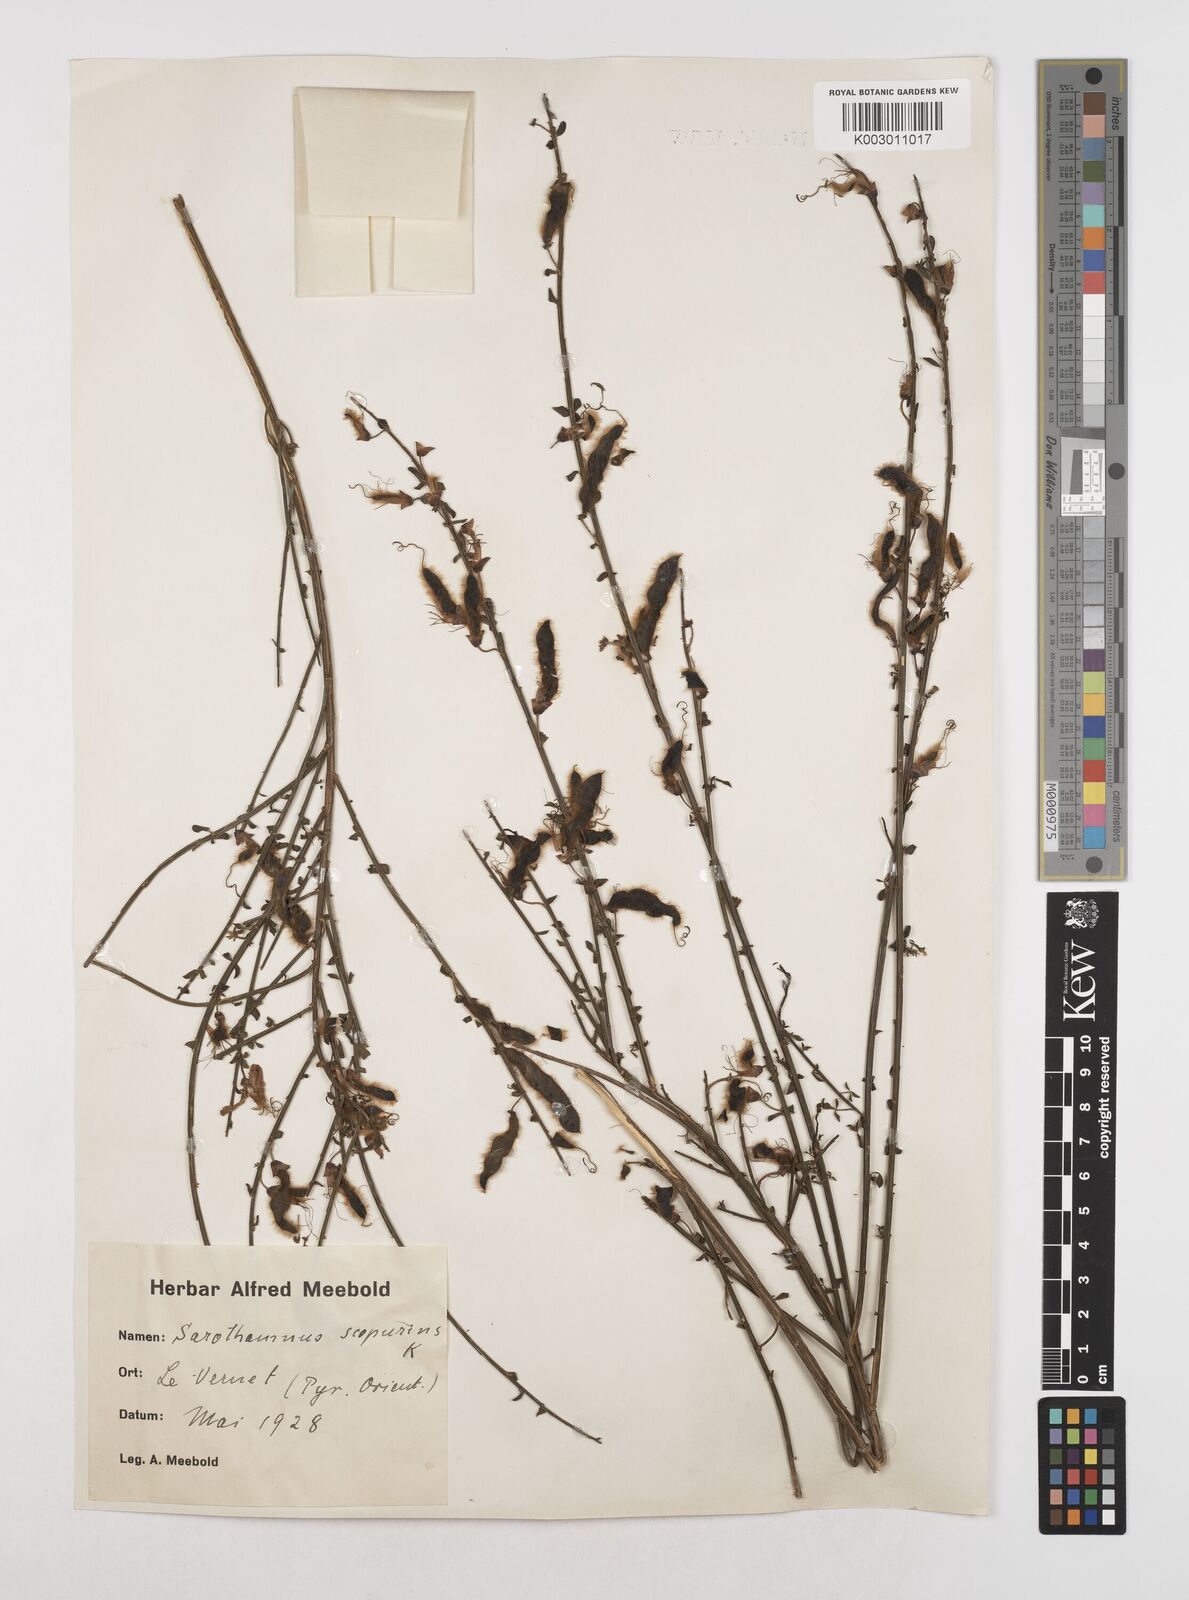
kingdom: Plantae
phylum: Tracheophyta
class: Magnoliopsida
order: Fabales
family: Fabaceae
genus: Cytisus
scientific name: Cytisus scoparius
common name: Scotch broom
